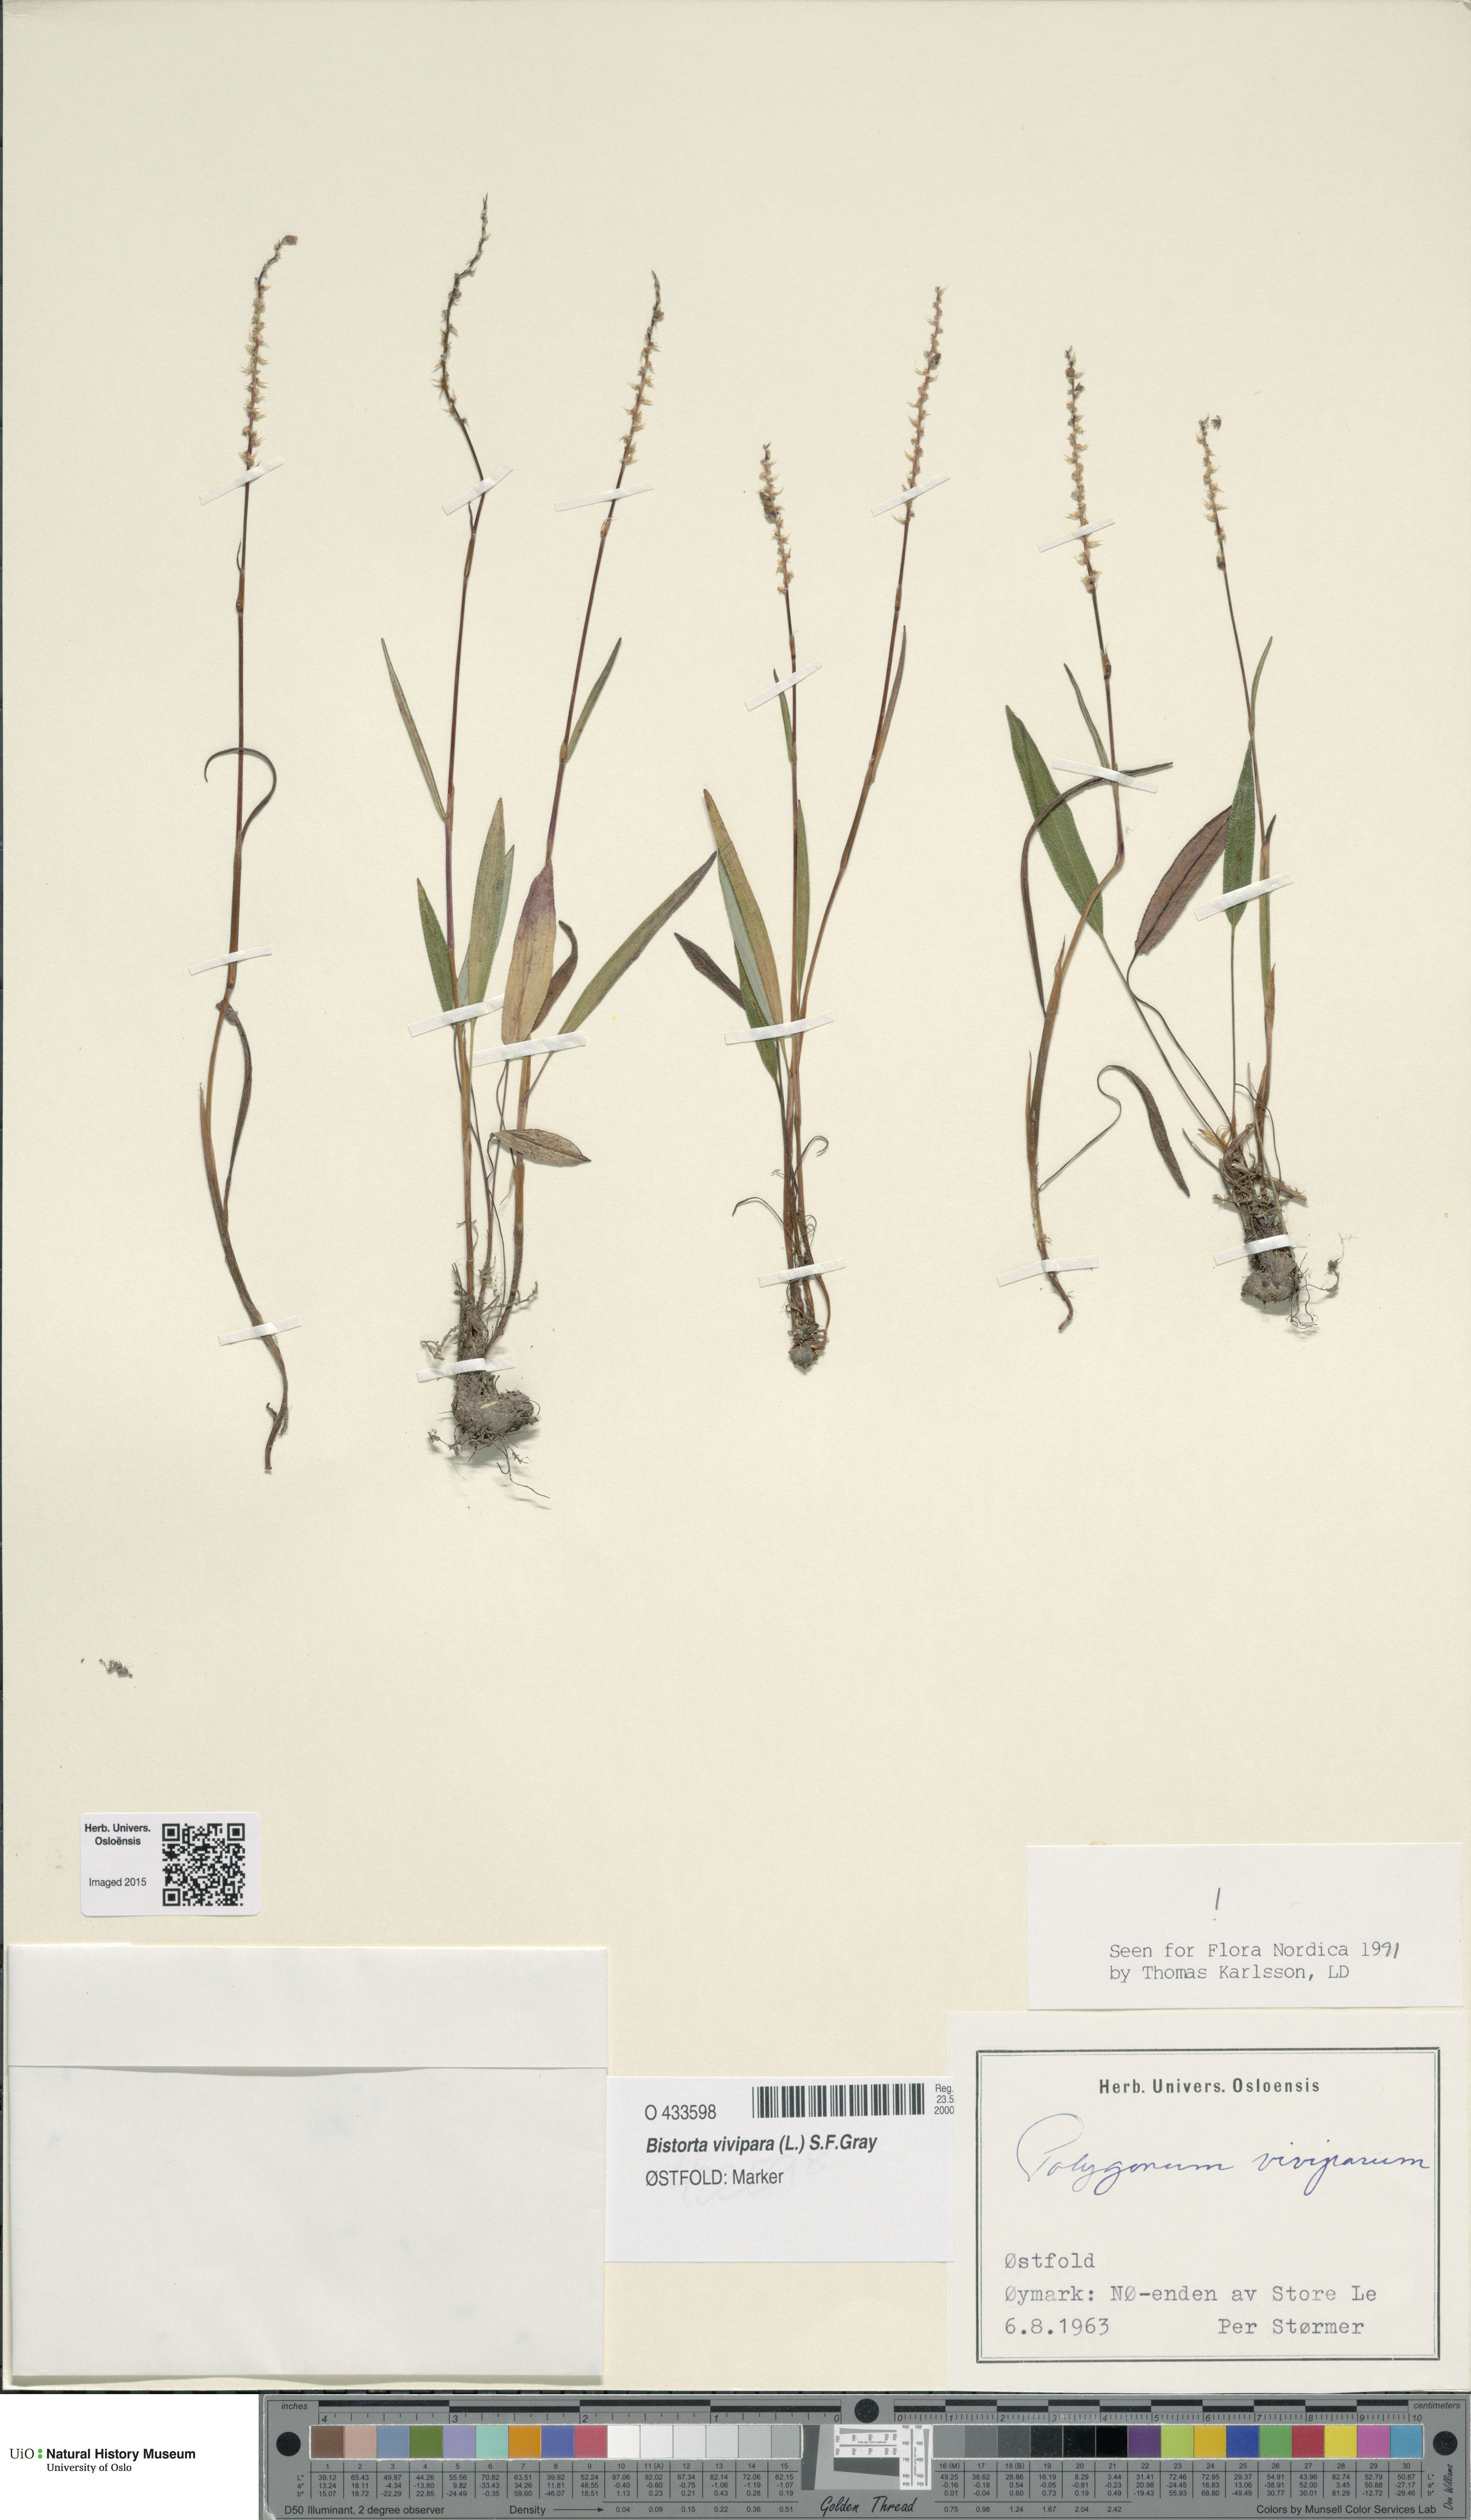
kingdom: Plantae
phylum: Tracheophyta
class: Magnoliopsida
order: Caryophyllales
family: Polygonaceae
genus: Bistorta
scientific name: Bistorta vivipara
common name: Alpine bistort
